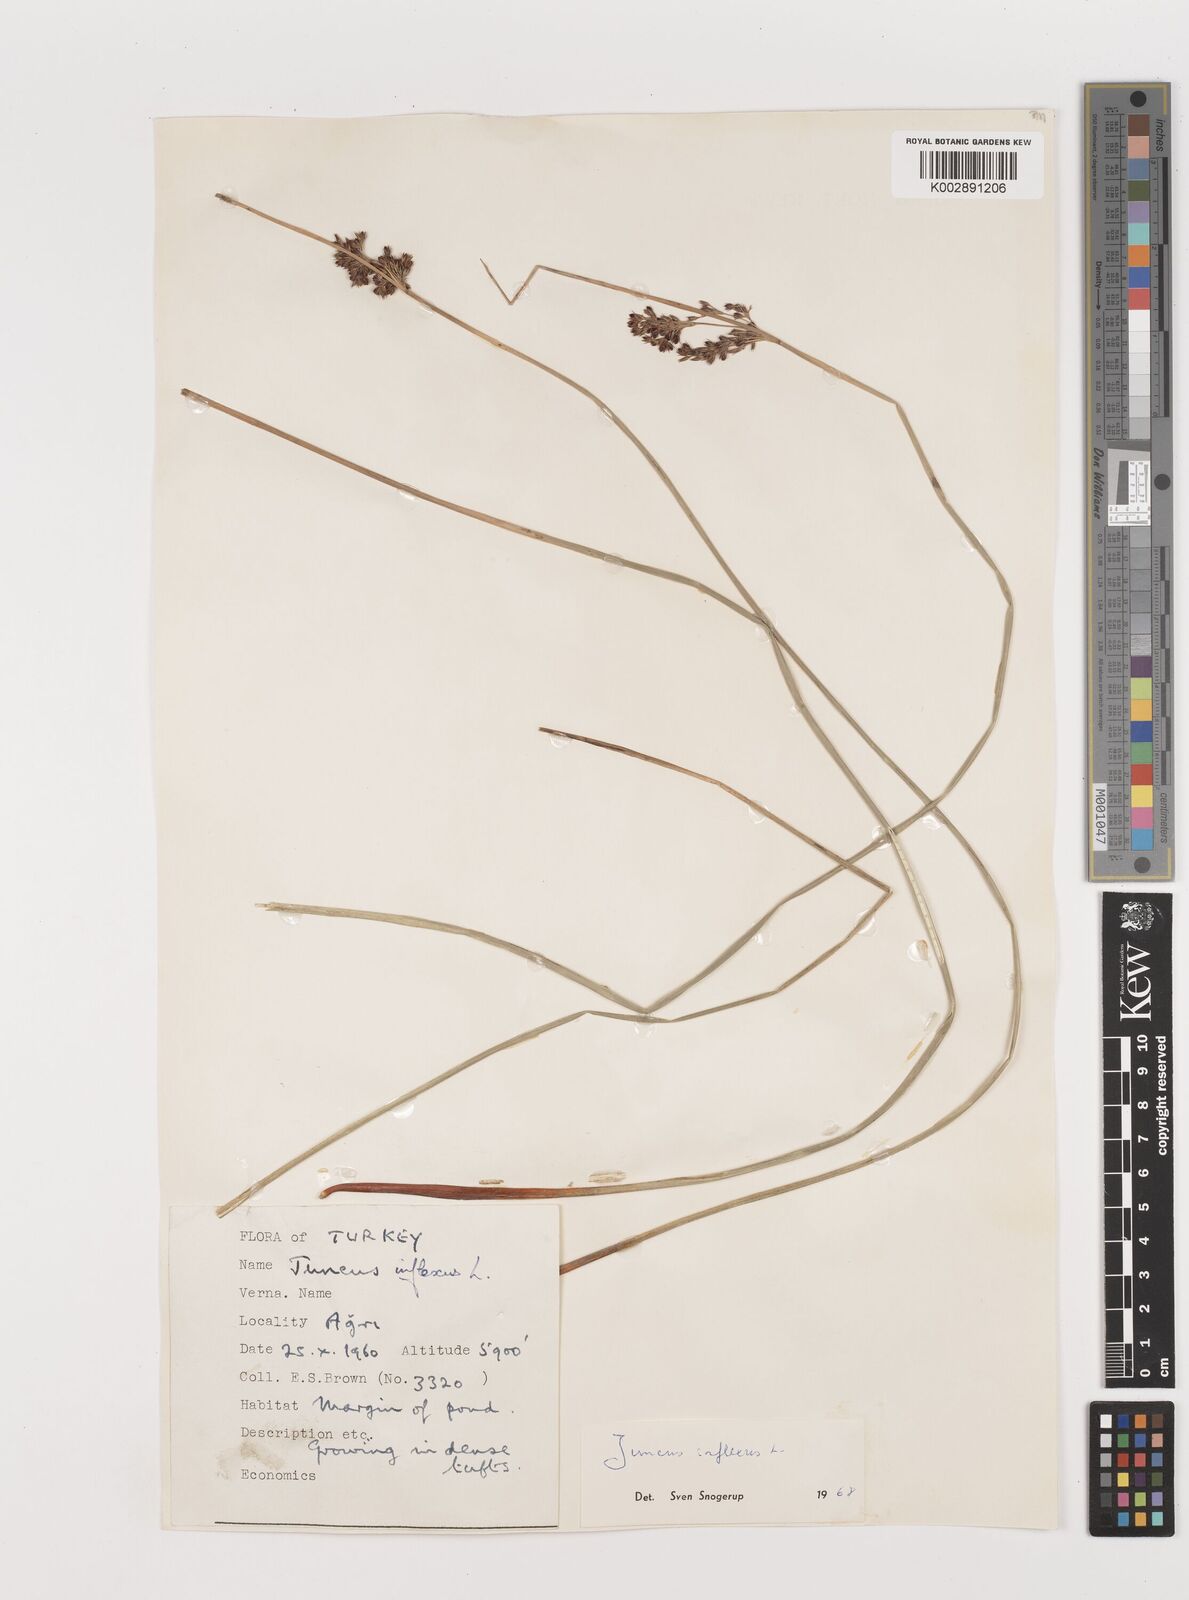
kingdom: Plantae
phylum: Tracheophyta
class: Liliopsida
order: Poales
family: Juncaceae
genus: Juncus
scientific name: Juncus inflexus
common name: Hard rush
